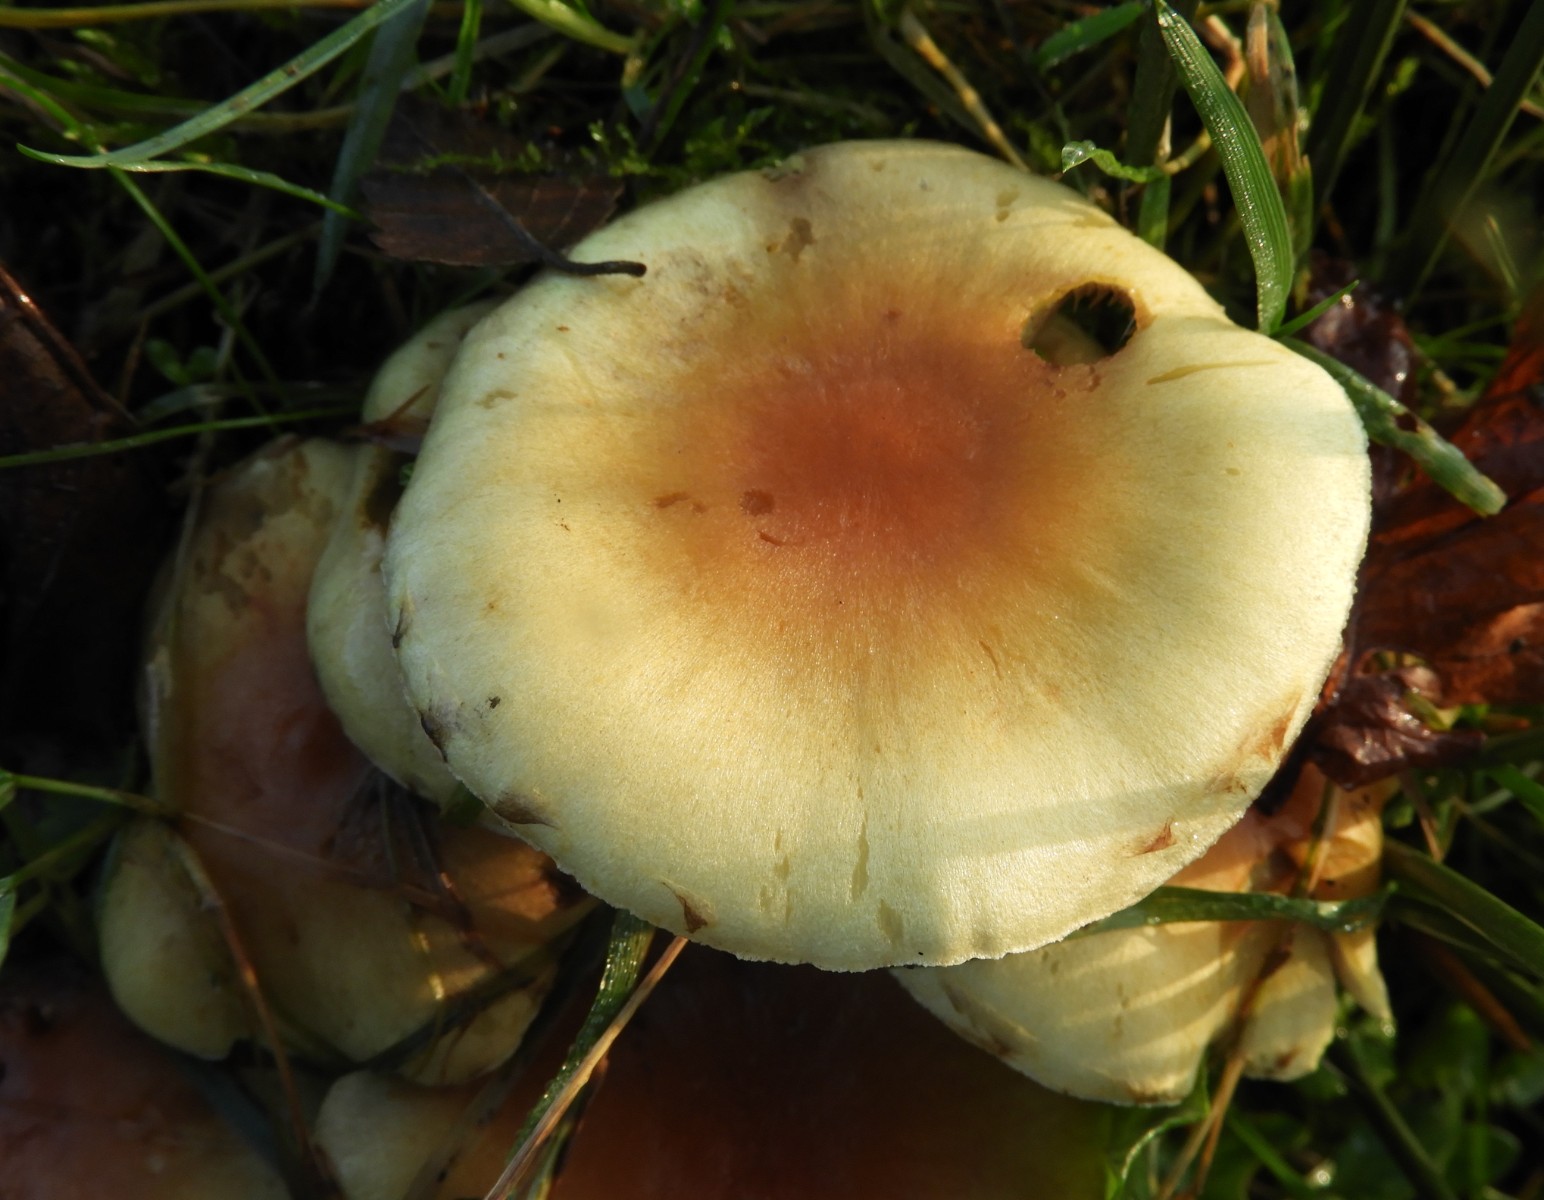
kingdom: Fungi
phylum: Basidiomycota
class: Agaricomycetes
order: Agaricales
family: Strophariaceae
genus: Hypholoma
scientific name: Hypholoma fasciculare
